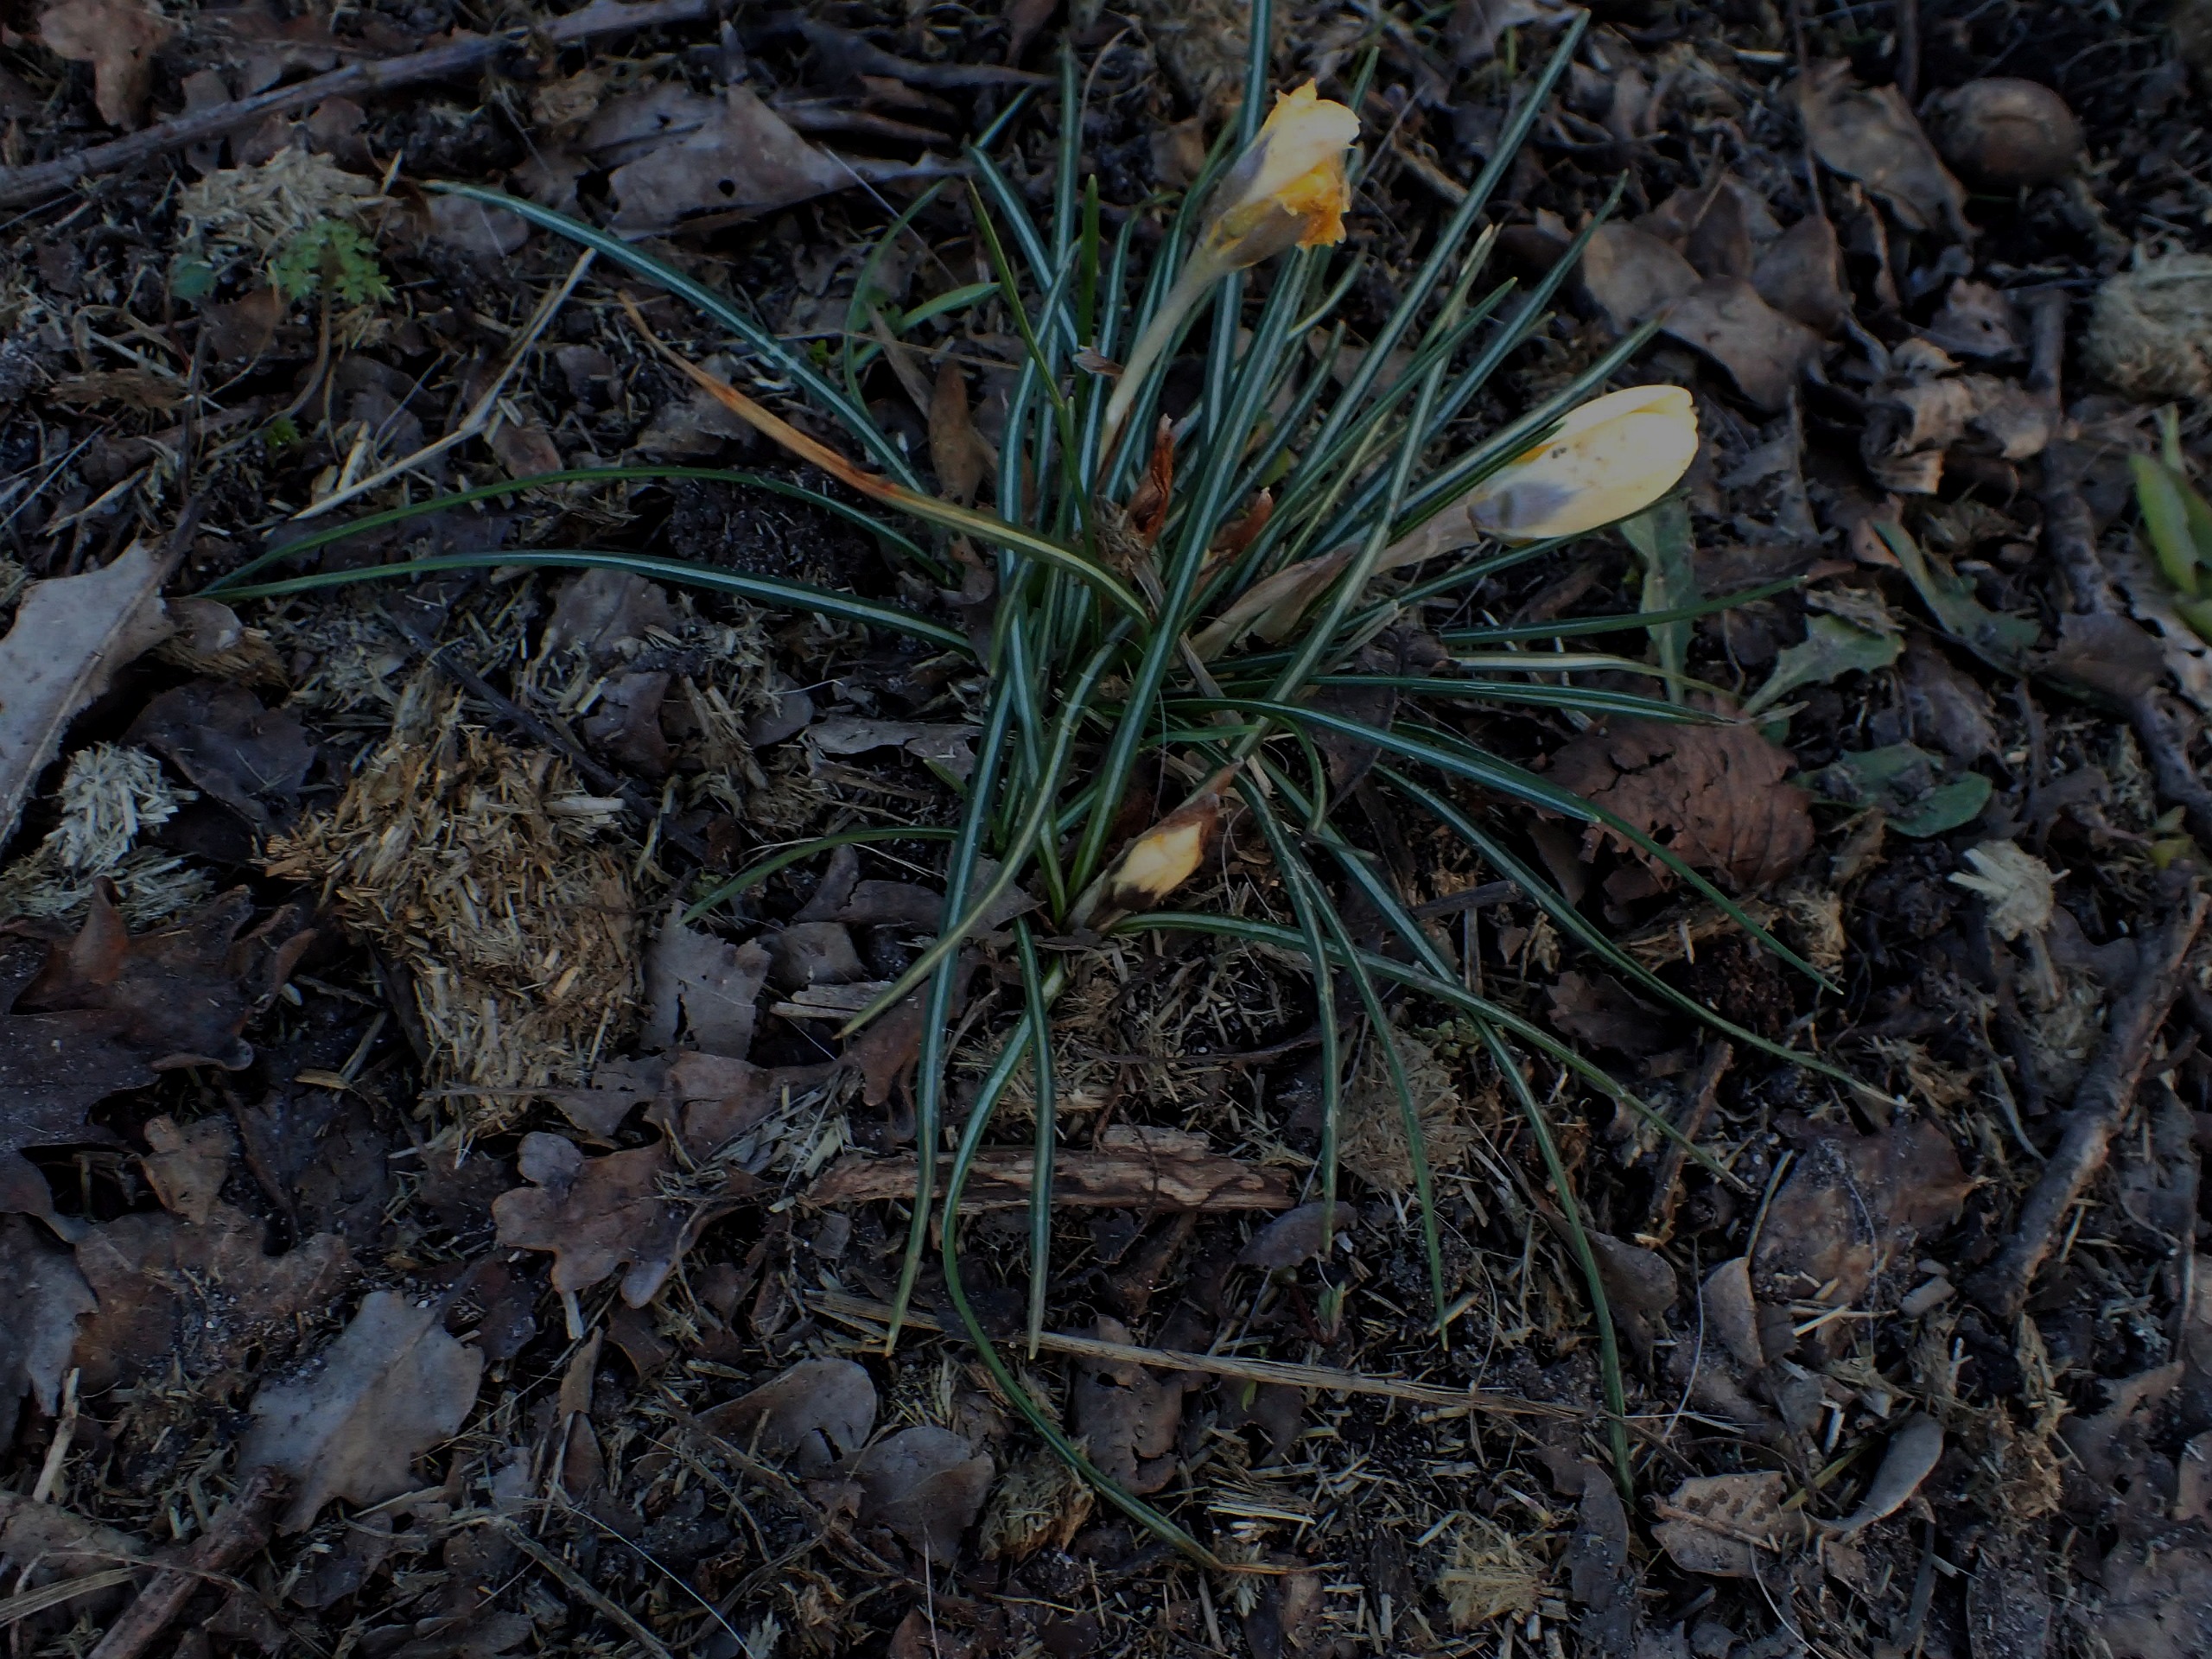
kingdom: Plantae
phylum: Tracheophyta
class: Liliopsida
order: Asparagales
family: Iridaceae
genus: Crocus
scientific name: Crocus luteus
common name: Gul krokus
